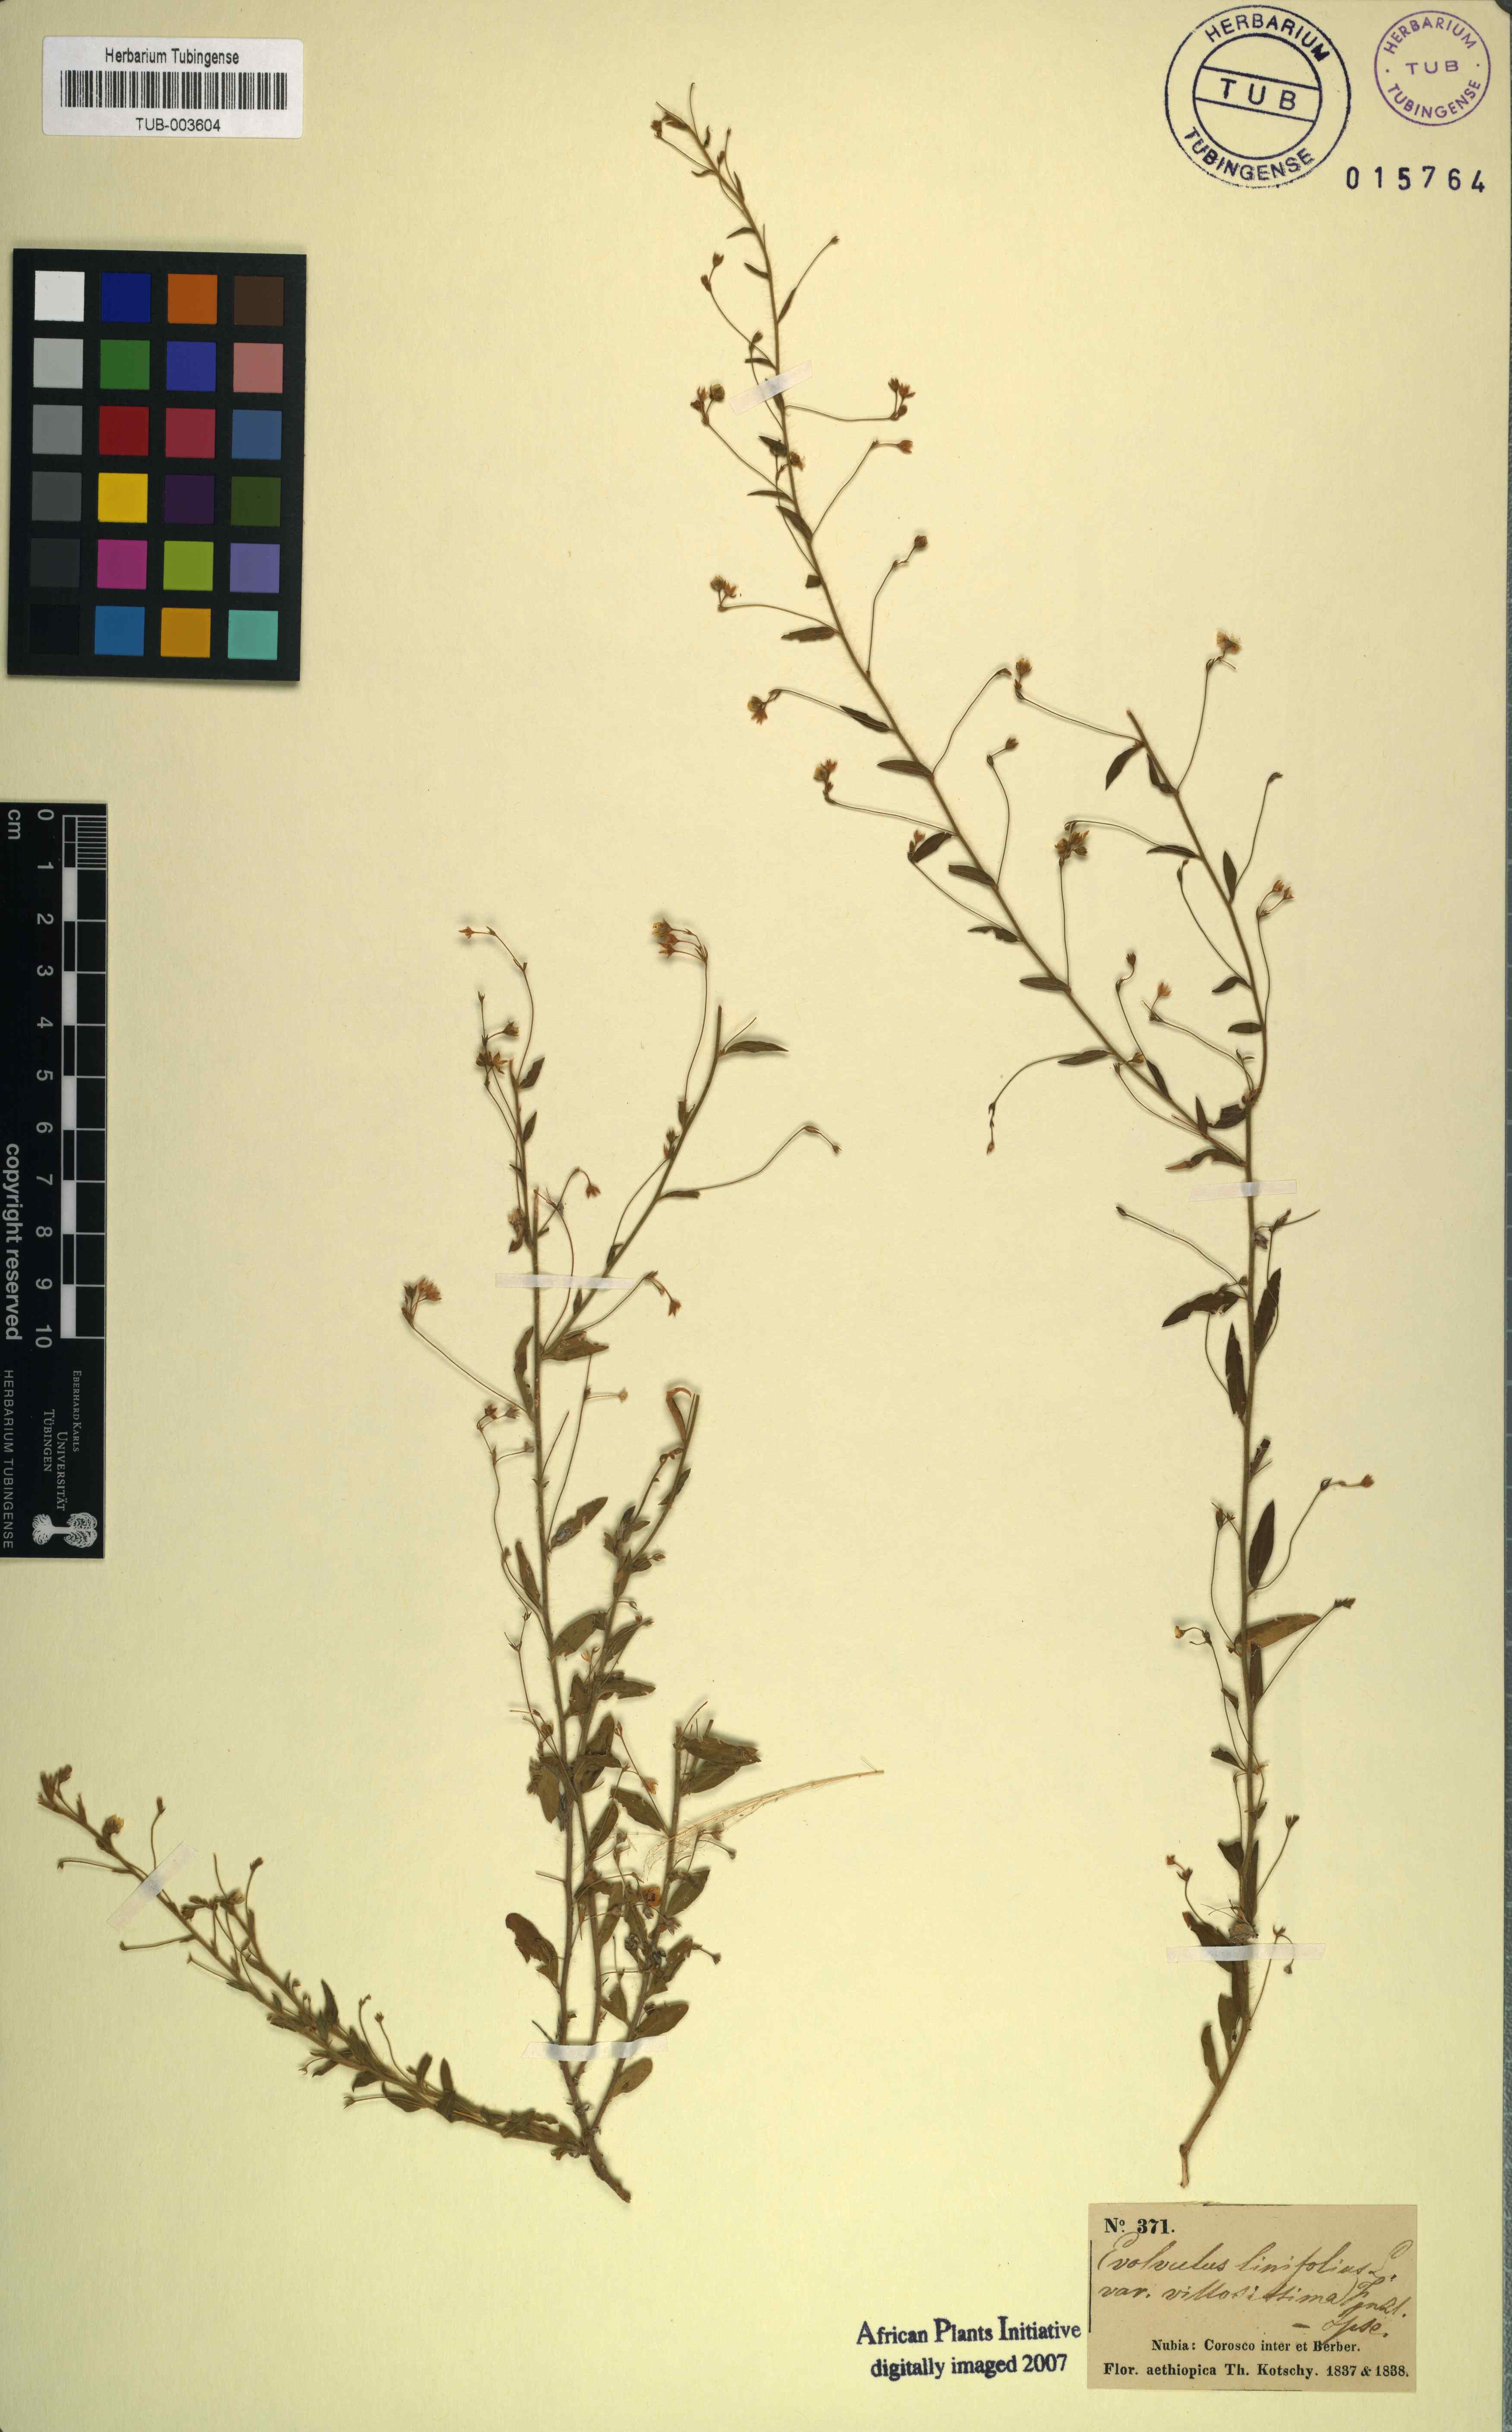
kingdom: Plantae
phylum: Tracheophyta
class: Magnoliopsida
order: Solanales
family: Convolvulaceae
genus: Evolvulus
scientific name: Evolvulus alsinoides
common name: Slender dwarf morning-glory
